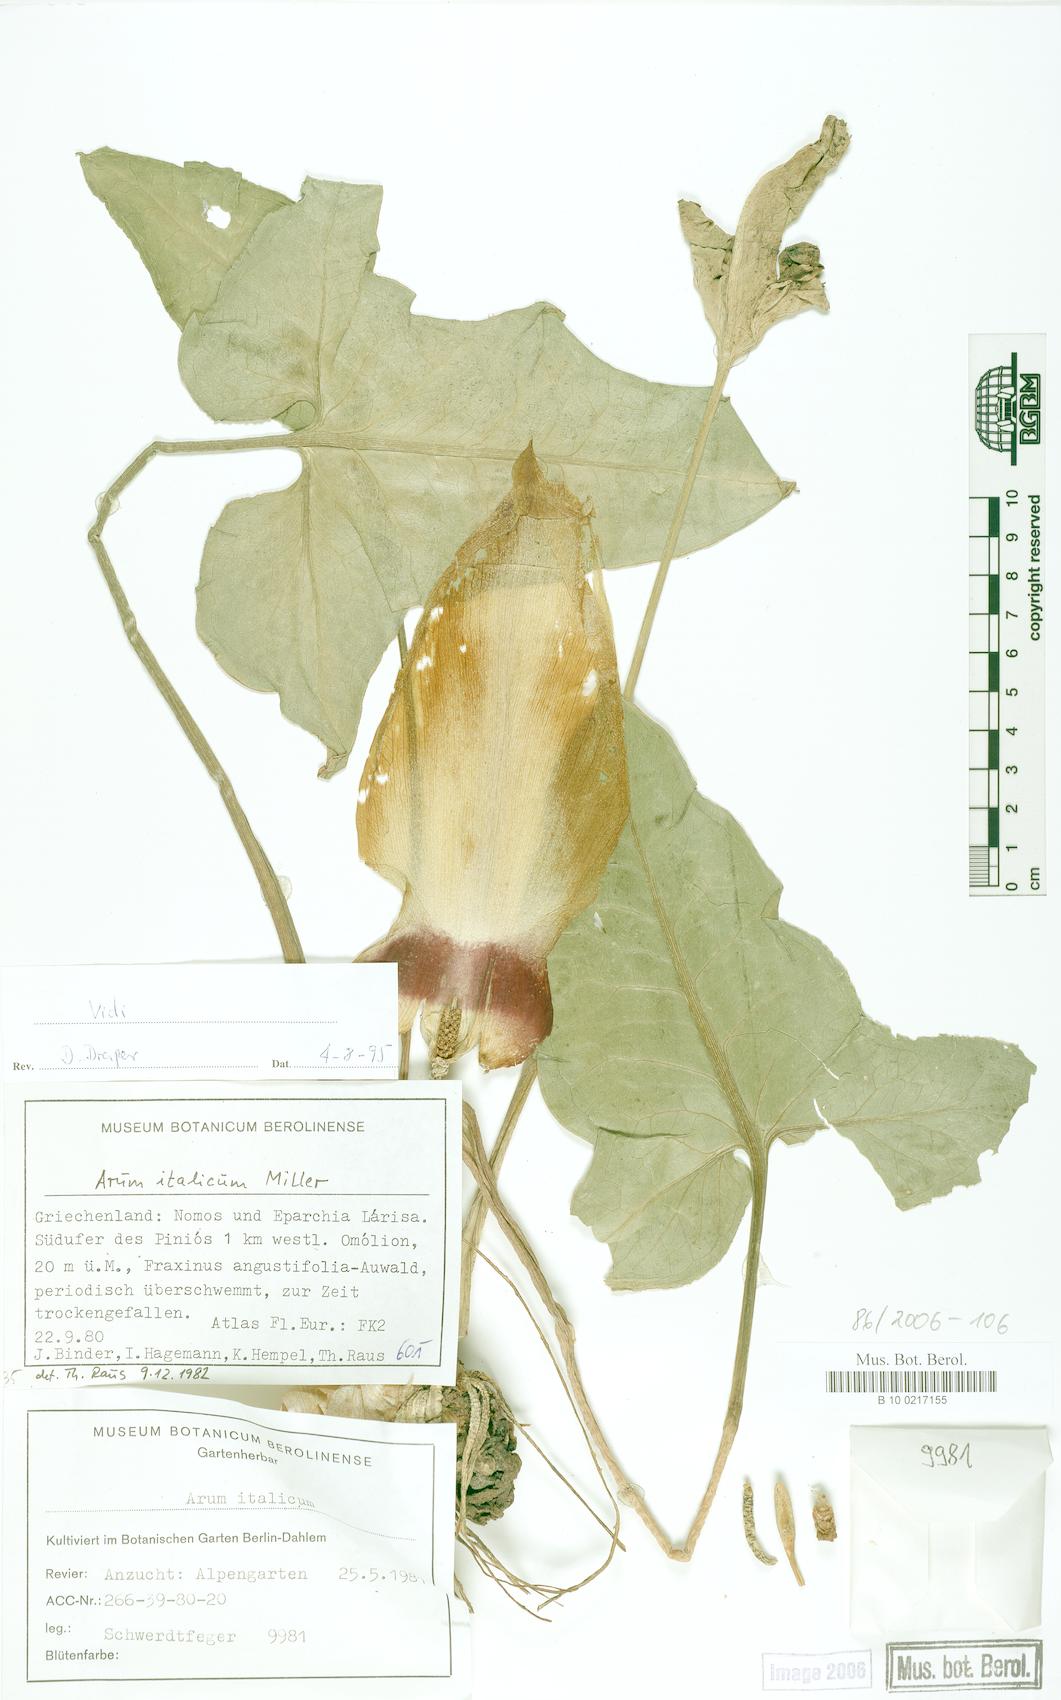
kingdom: Plantae
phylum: Tracheophyta
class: Liliopsida
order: Alismatales
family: Araceae
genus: Arum
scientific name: Arum italicum
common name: Italian lords-and-ladies
